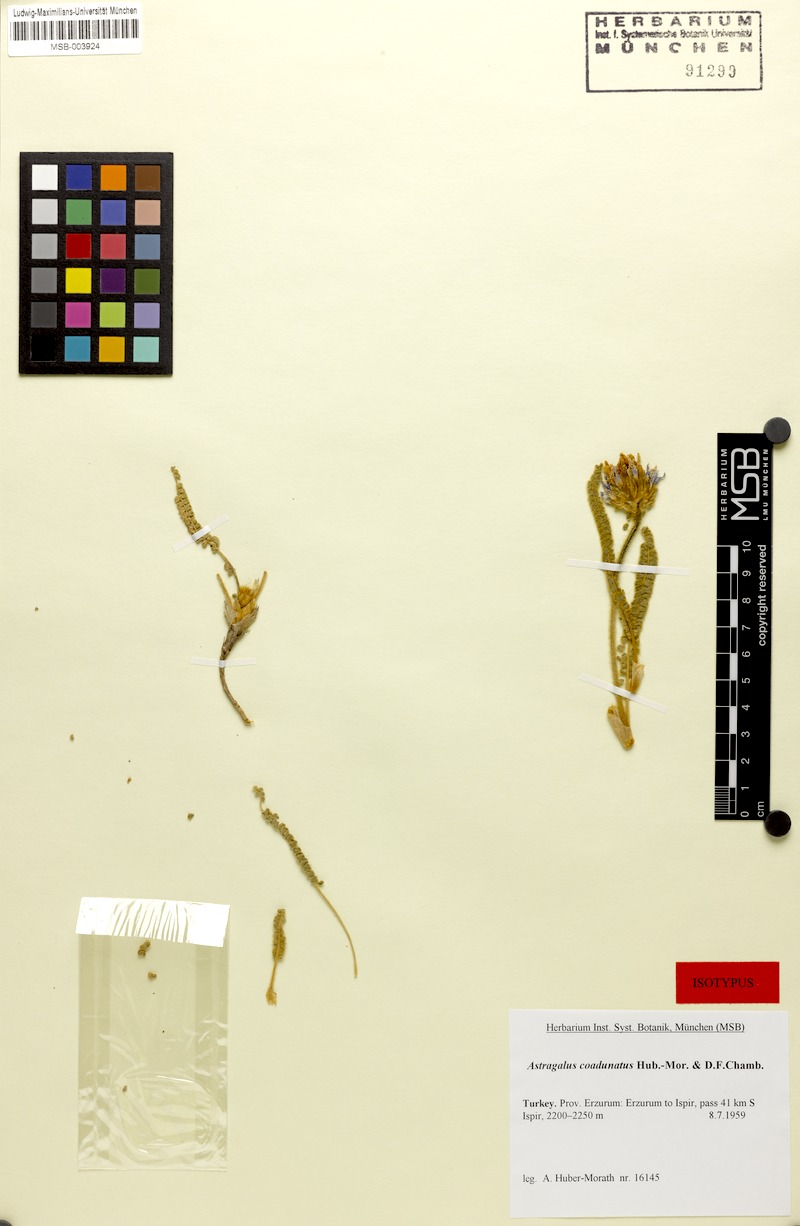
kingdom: Plantae
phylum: Tracheophyta
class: Magnoliopsida
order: Fabales
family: Fabaceae
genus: Astragalus
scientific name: Astragalus densifolius
